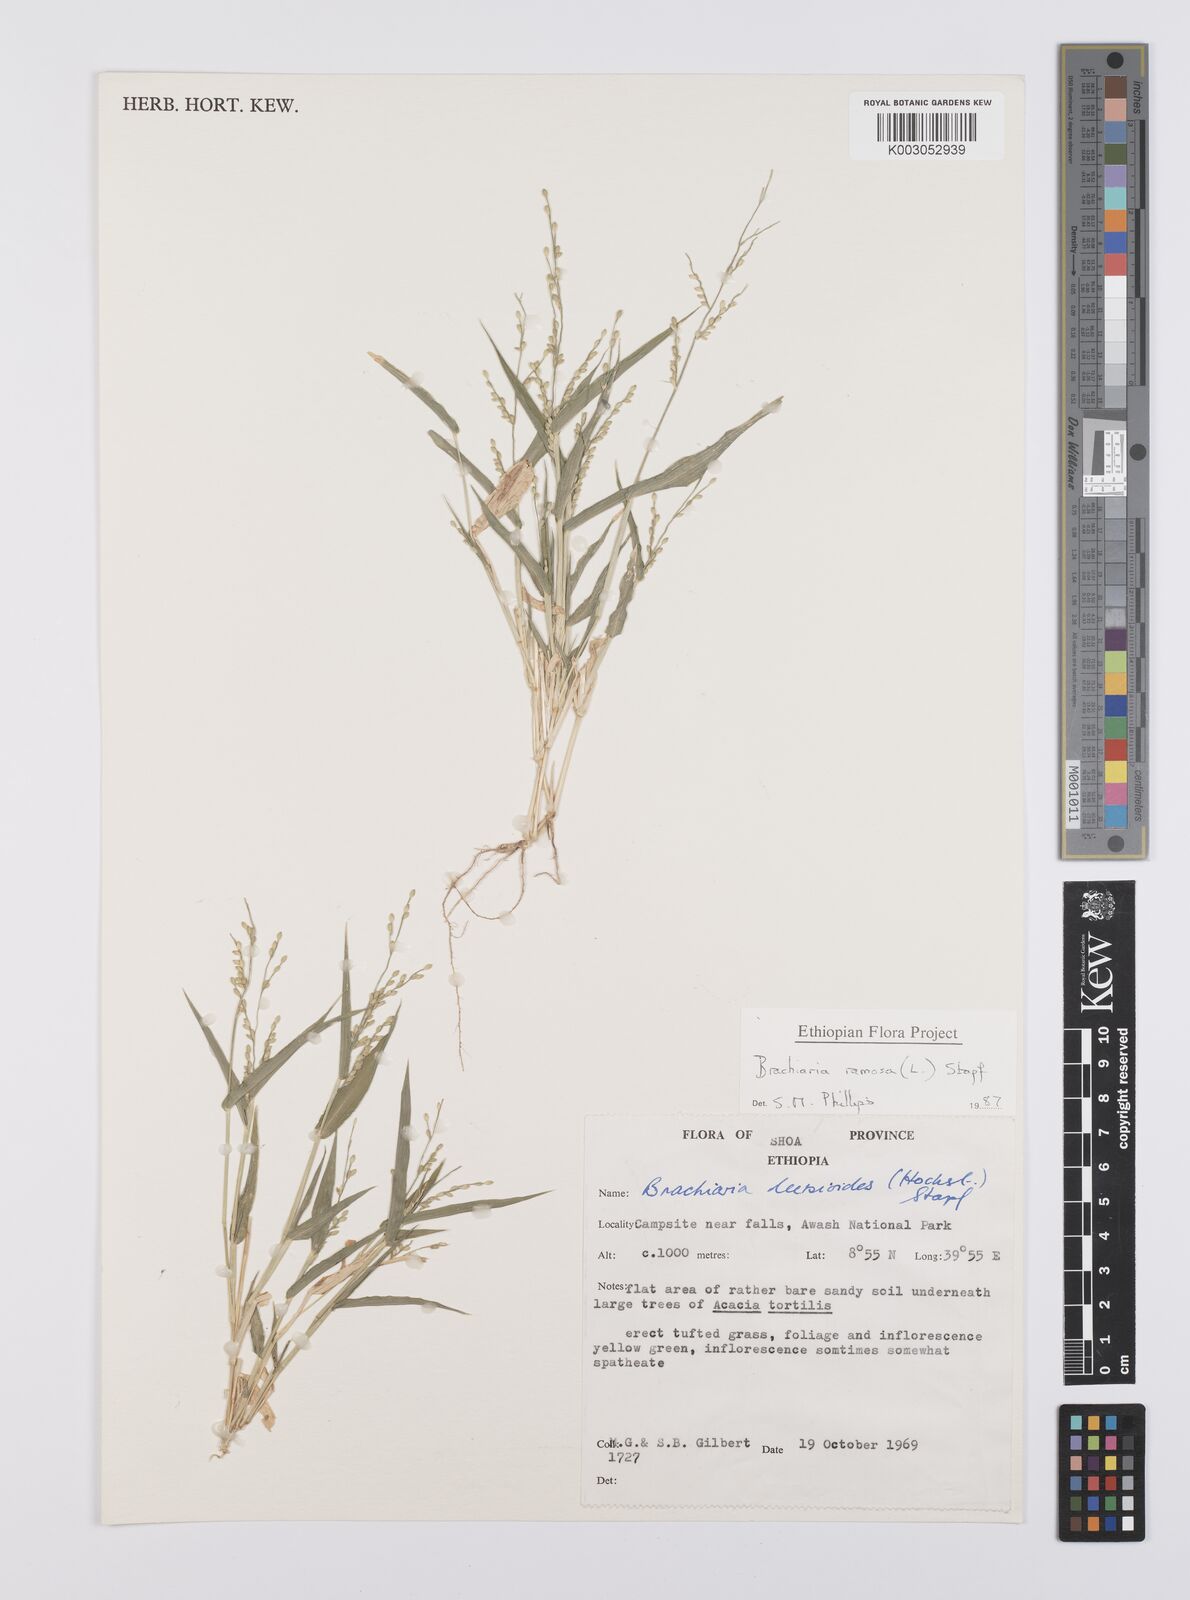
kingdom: Plantae
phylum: Tracheophyta
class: Liliopsida
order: Poales
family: Poaceae
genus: Urochloa
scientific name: Urochloa ramosa
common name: Browntop millet
